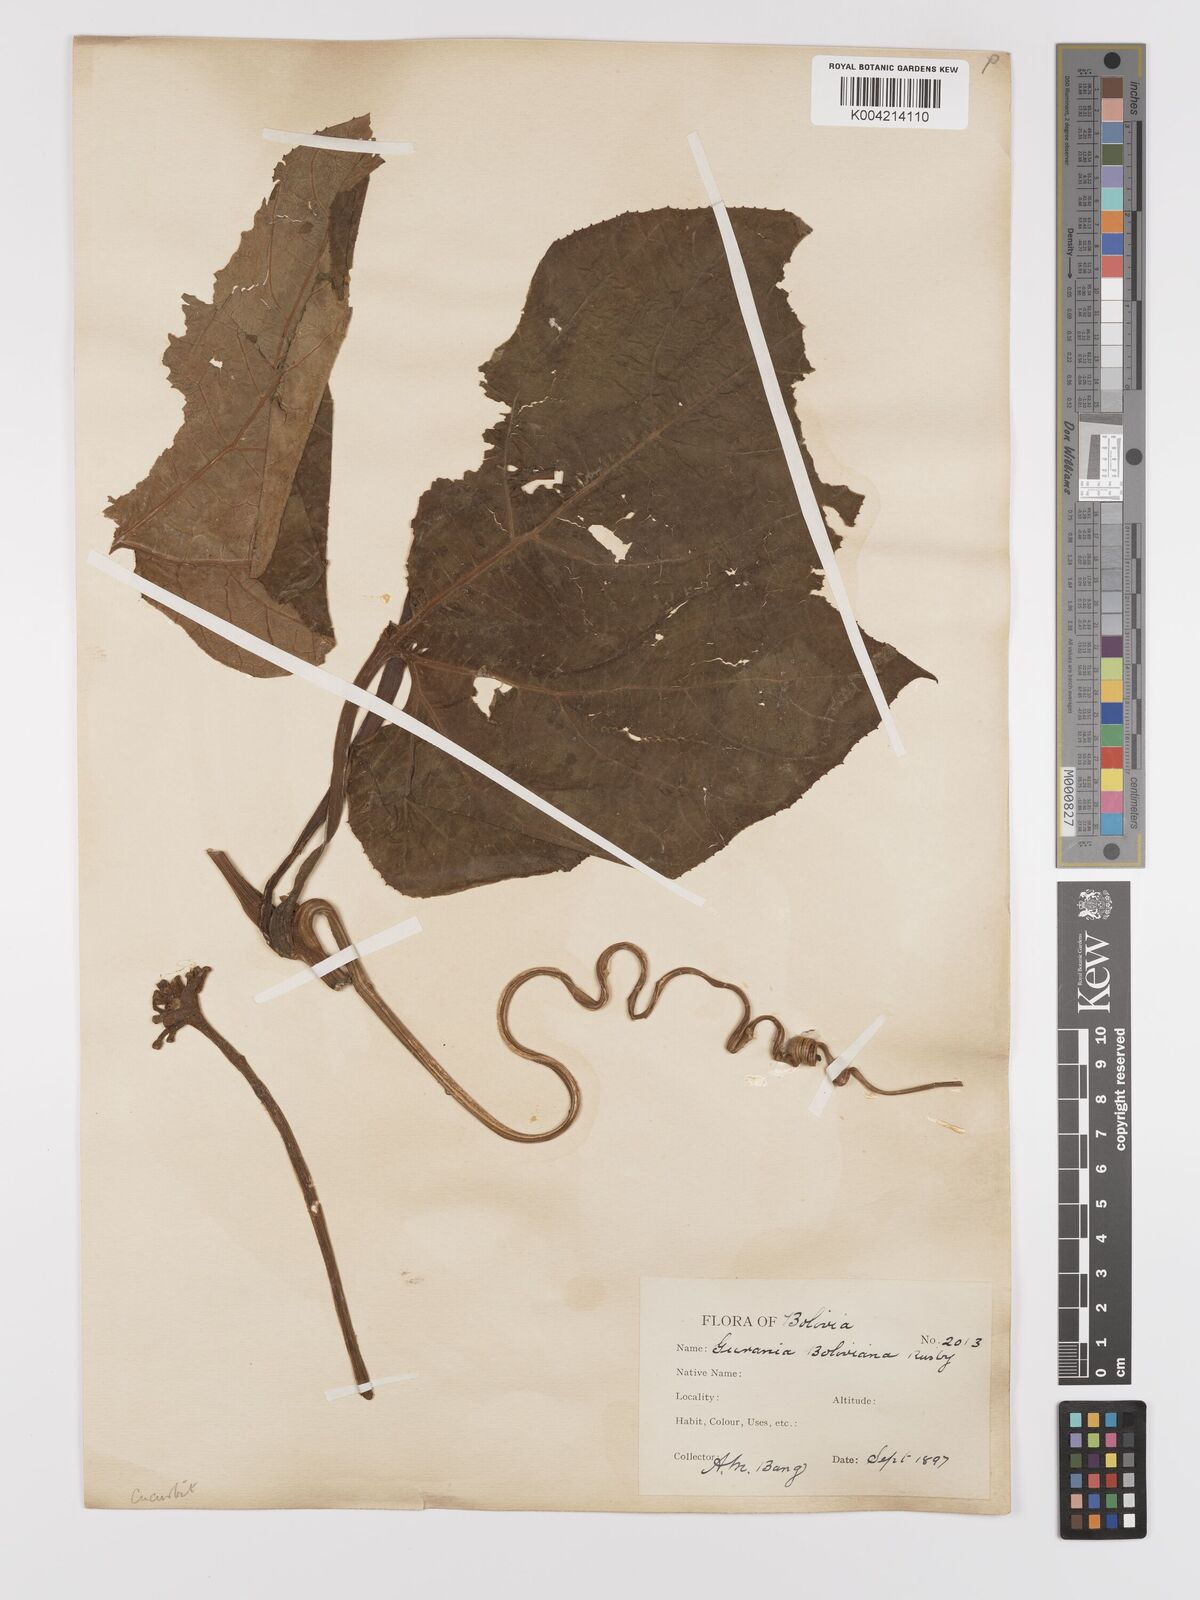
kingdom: Plantae
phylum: Tracheophyta
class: Magnoliopsida
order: Cucurbitales
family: Cucurbitaceae
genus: Gurania
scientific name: Gurania lobata
